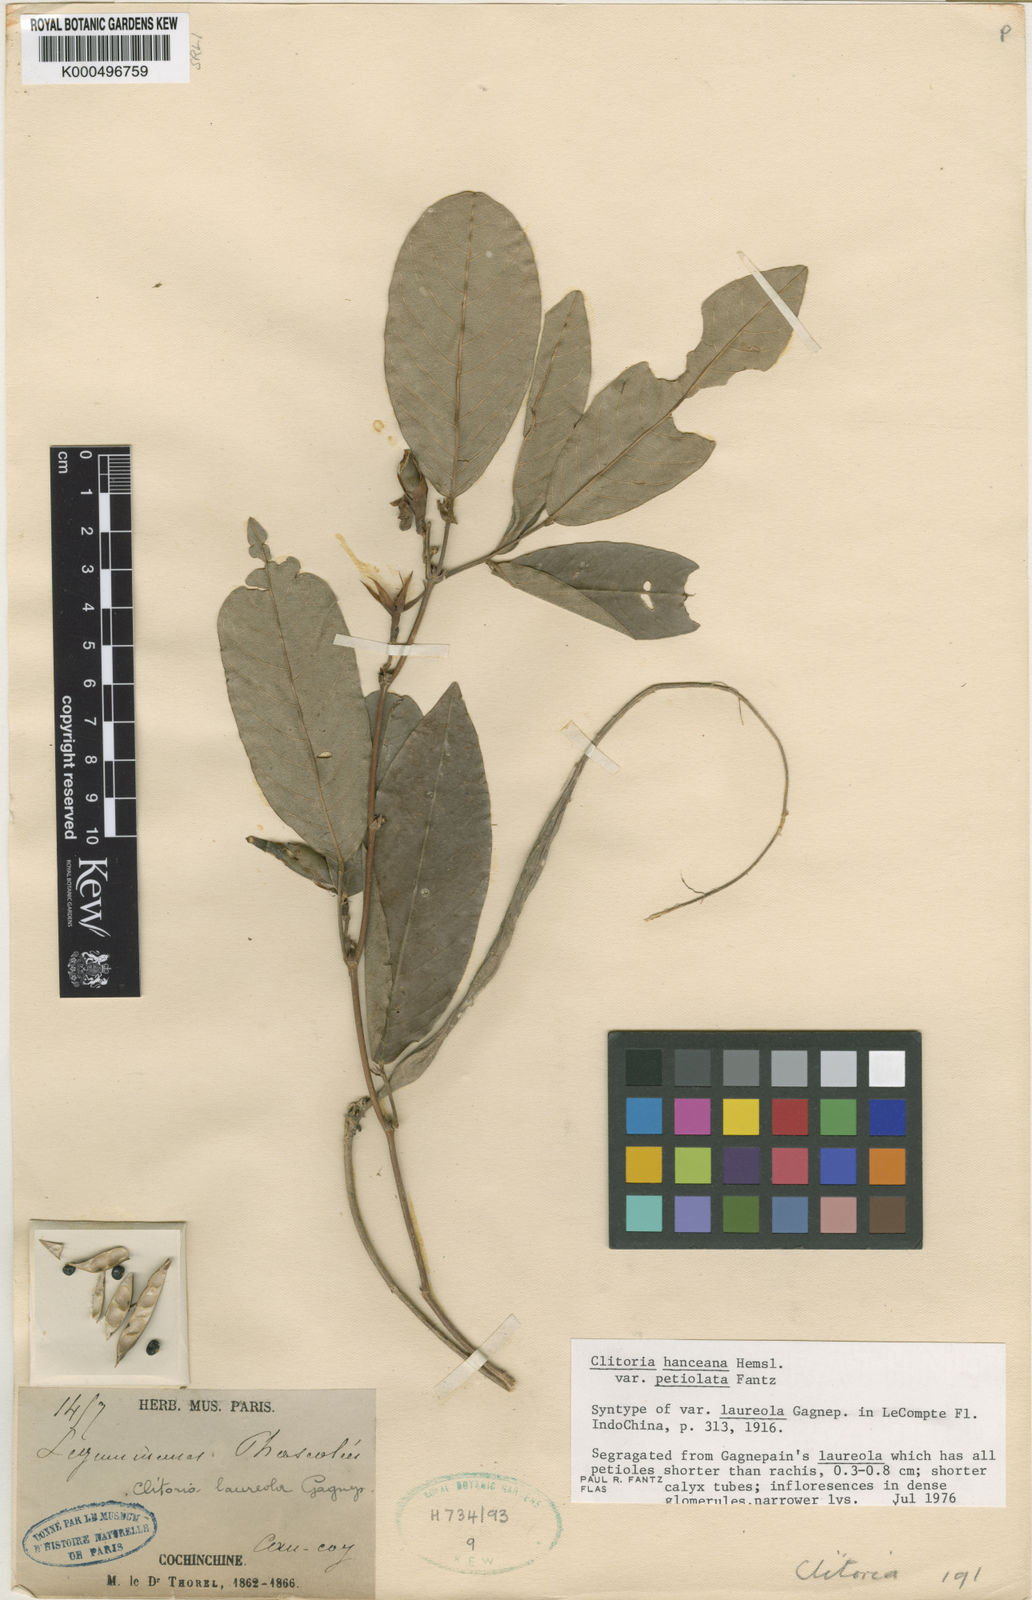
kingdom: Plantae
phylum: Tracheophyta
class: Magnoliopsida
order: Fabales
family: Fabaceae
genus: Clitoria
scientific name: Clitoria hanceana
